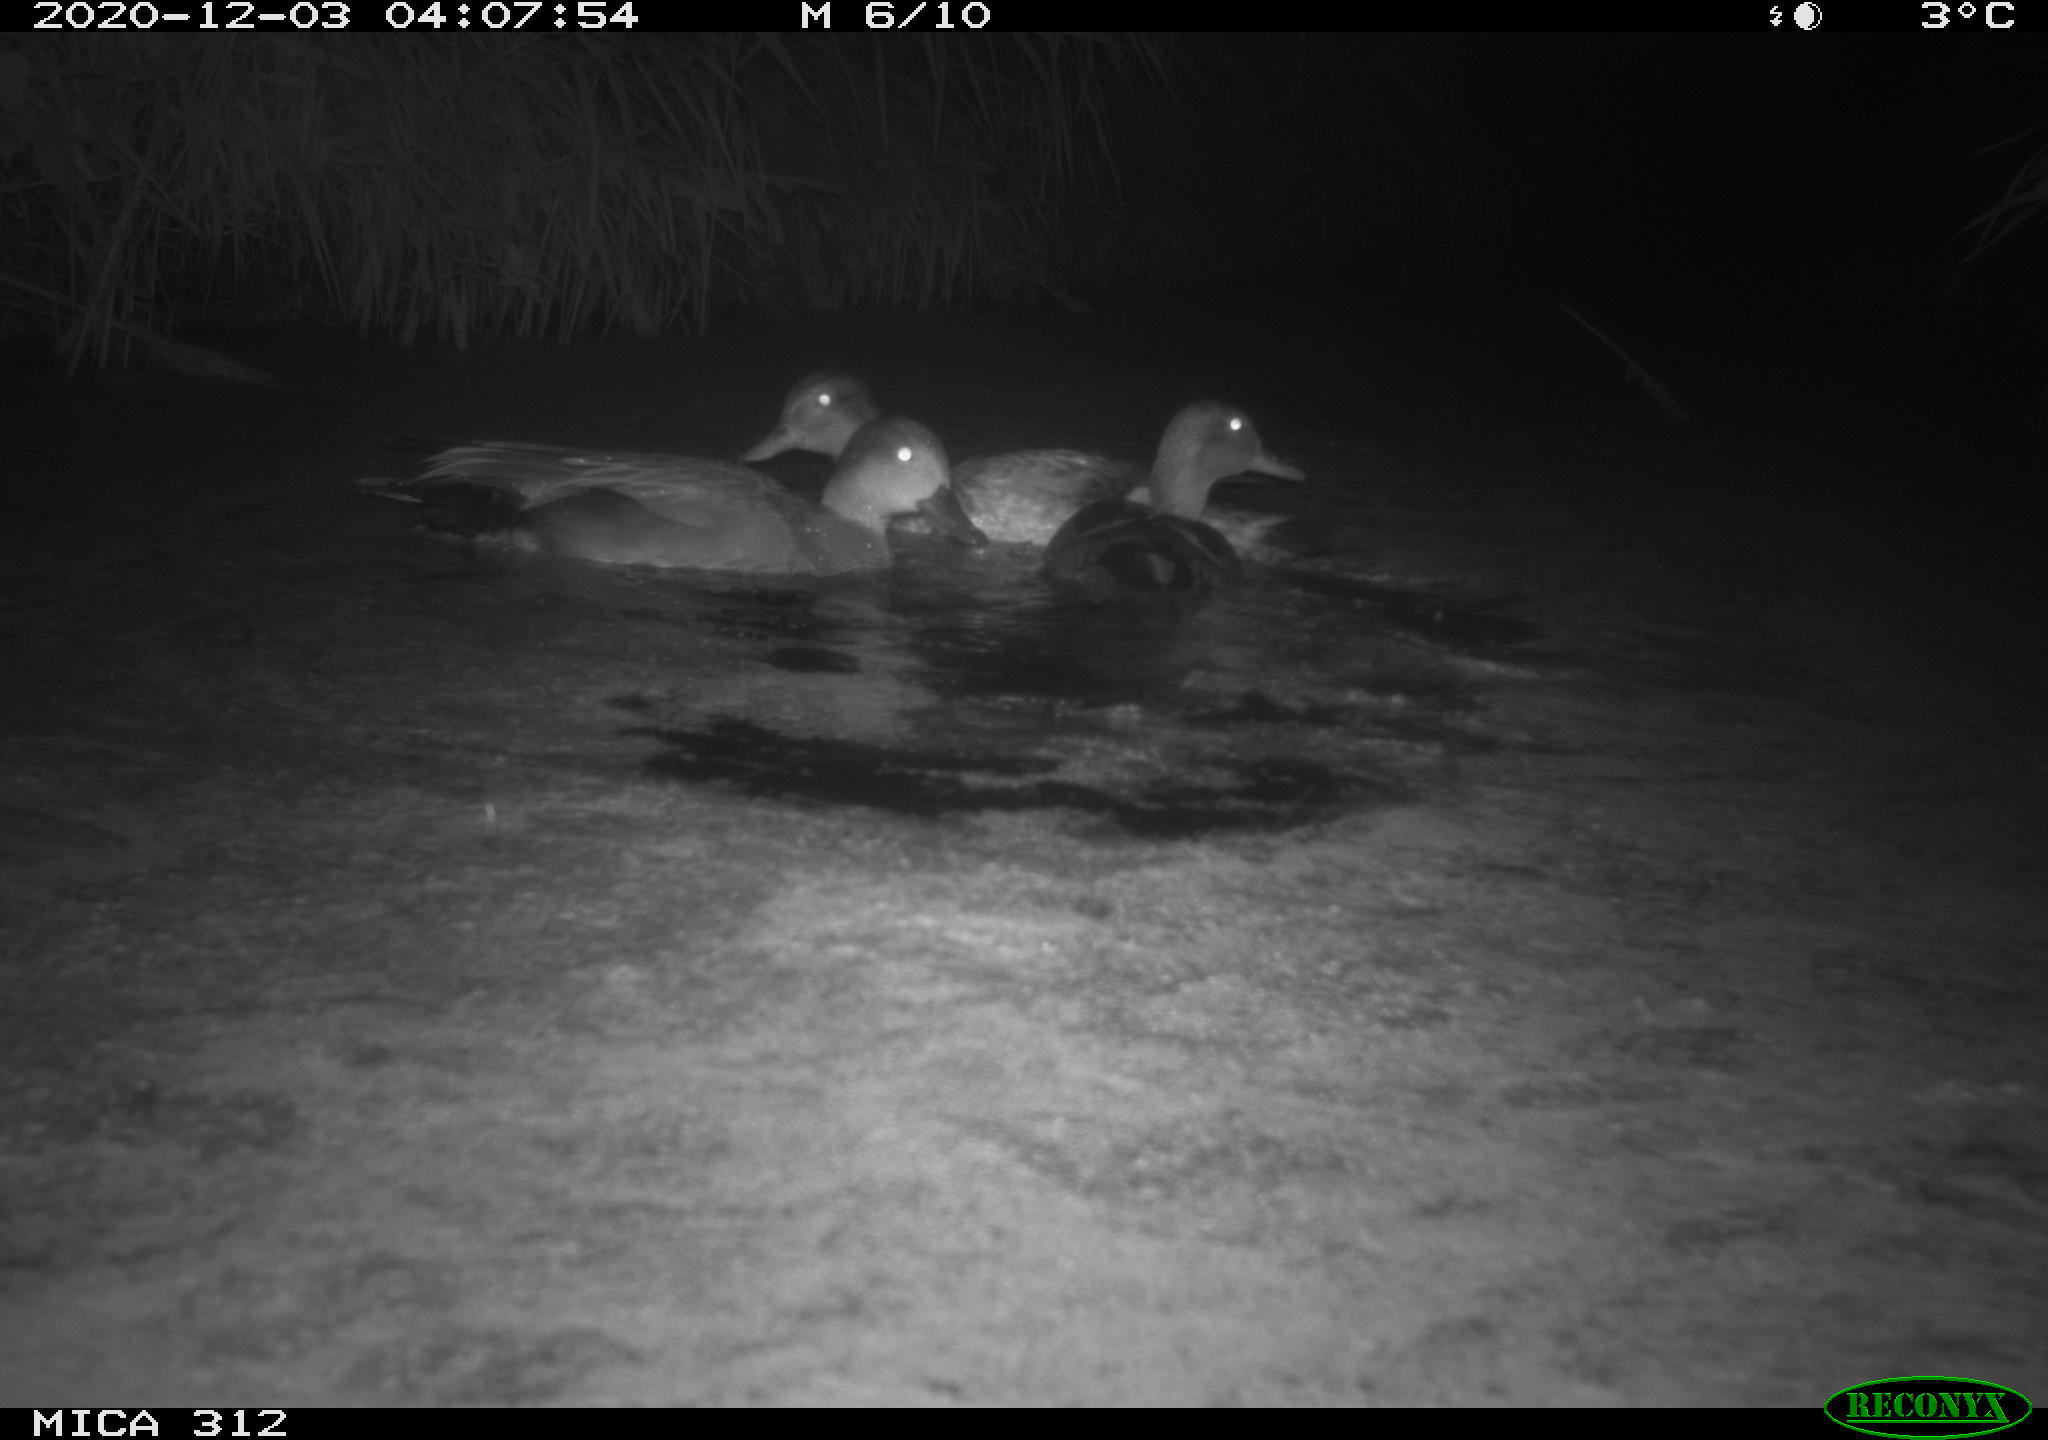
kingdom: Animalia
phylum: Chordata
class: Aves
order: Anseriformes
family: Anatidae
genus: Anas
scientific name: Anas platyrhynchos
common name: Mallard
